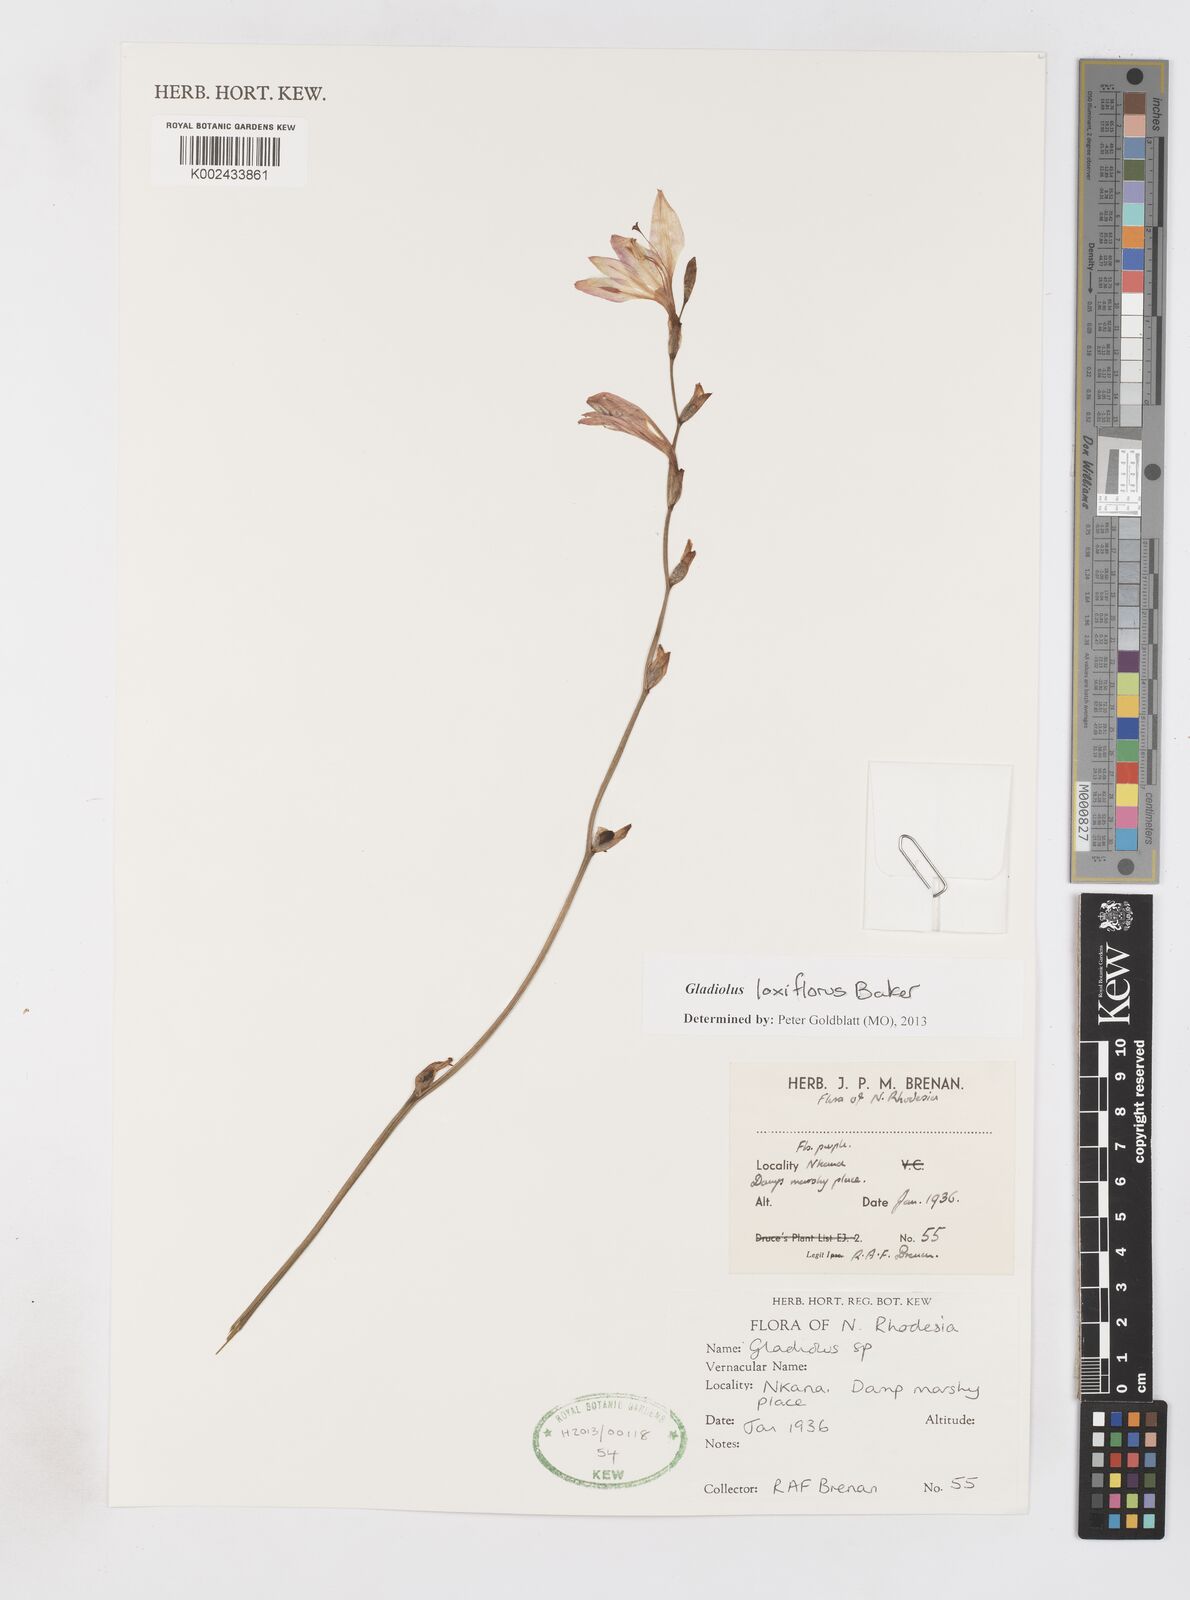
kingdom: Plantae
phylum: Tracheophyta
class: Liliopsida
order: Asparagales
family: Iridaceae
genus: Gladiolus
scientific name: Gladiolus laxiflorus
